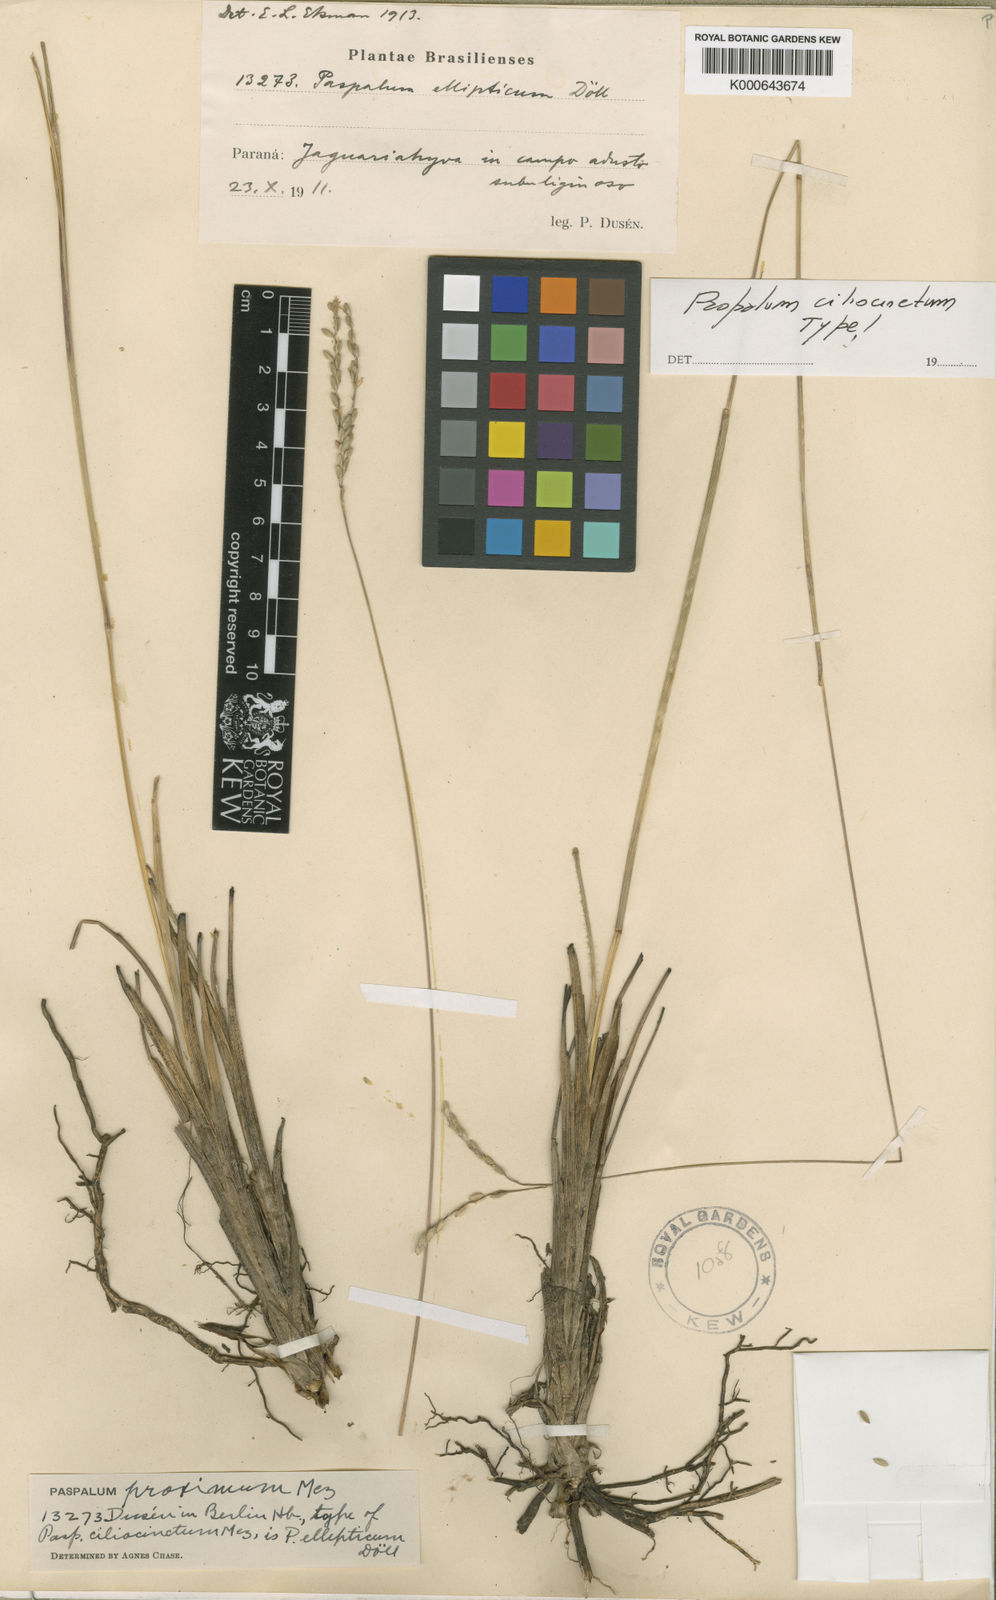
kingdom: Plantae
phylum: Tracheophyta
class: Liliopsida
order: Poales
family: Poaceae
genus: Paspalum
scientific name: Paspalum ellipticum
